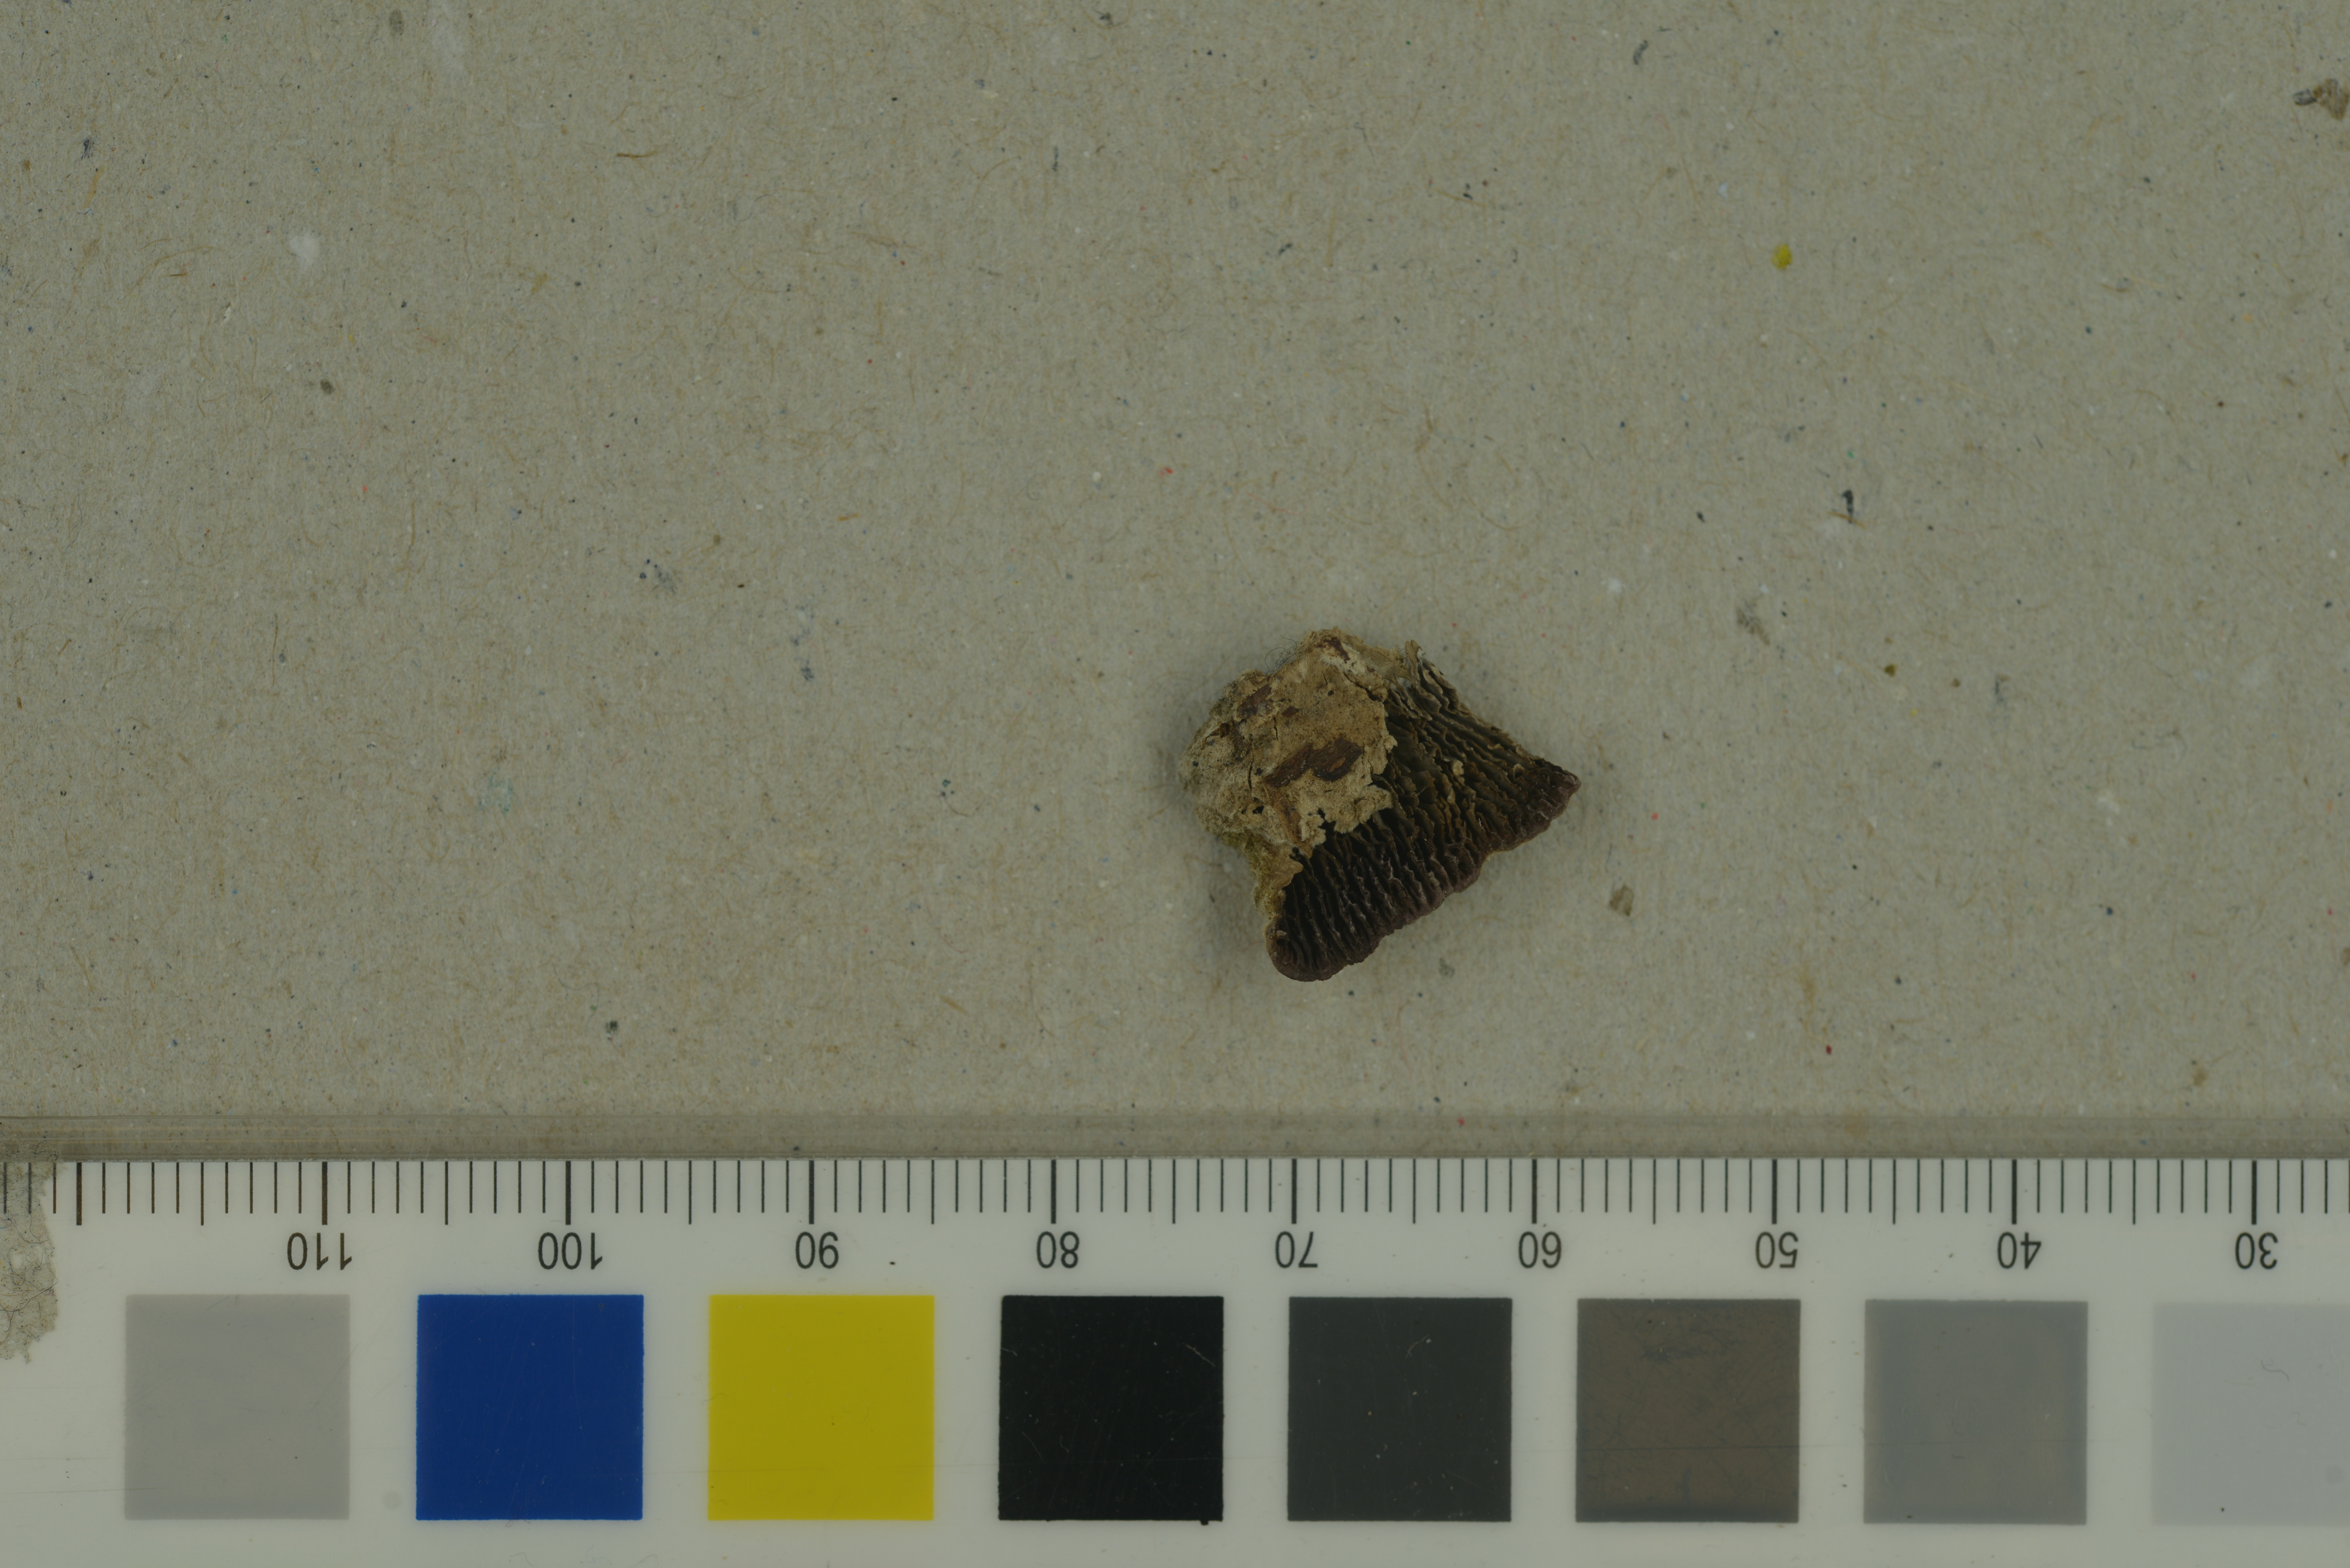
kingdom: Fungi
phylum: Basidiomycota
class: Agaricomycetes
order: Hymenochaetales
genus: Trichaptum
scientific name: Trichaptum laricinum
